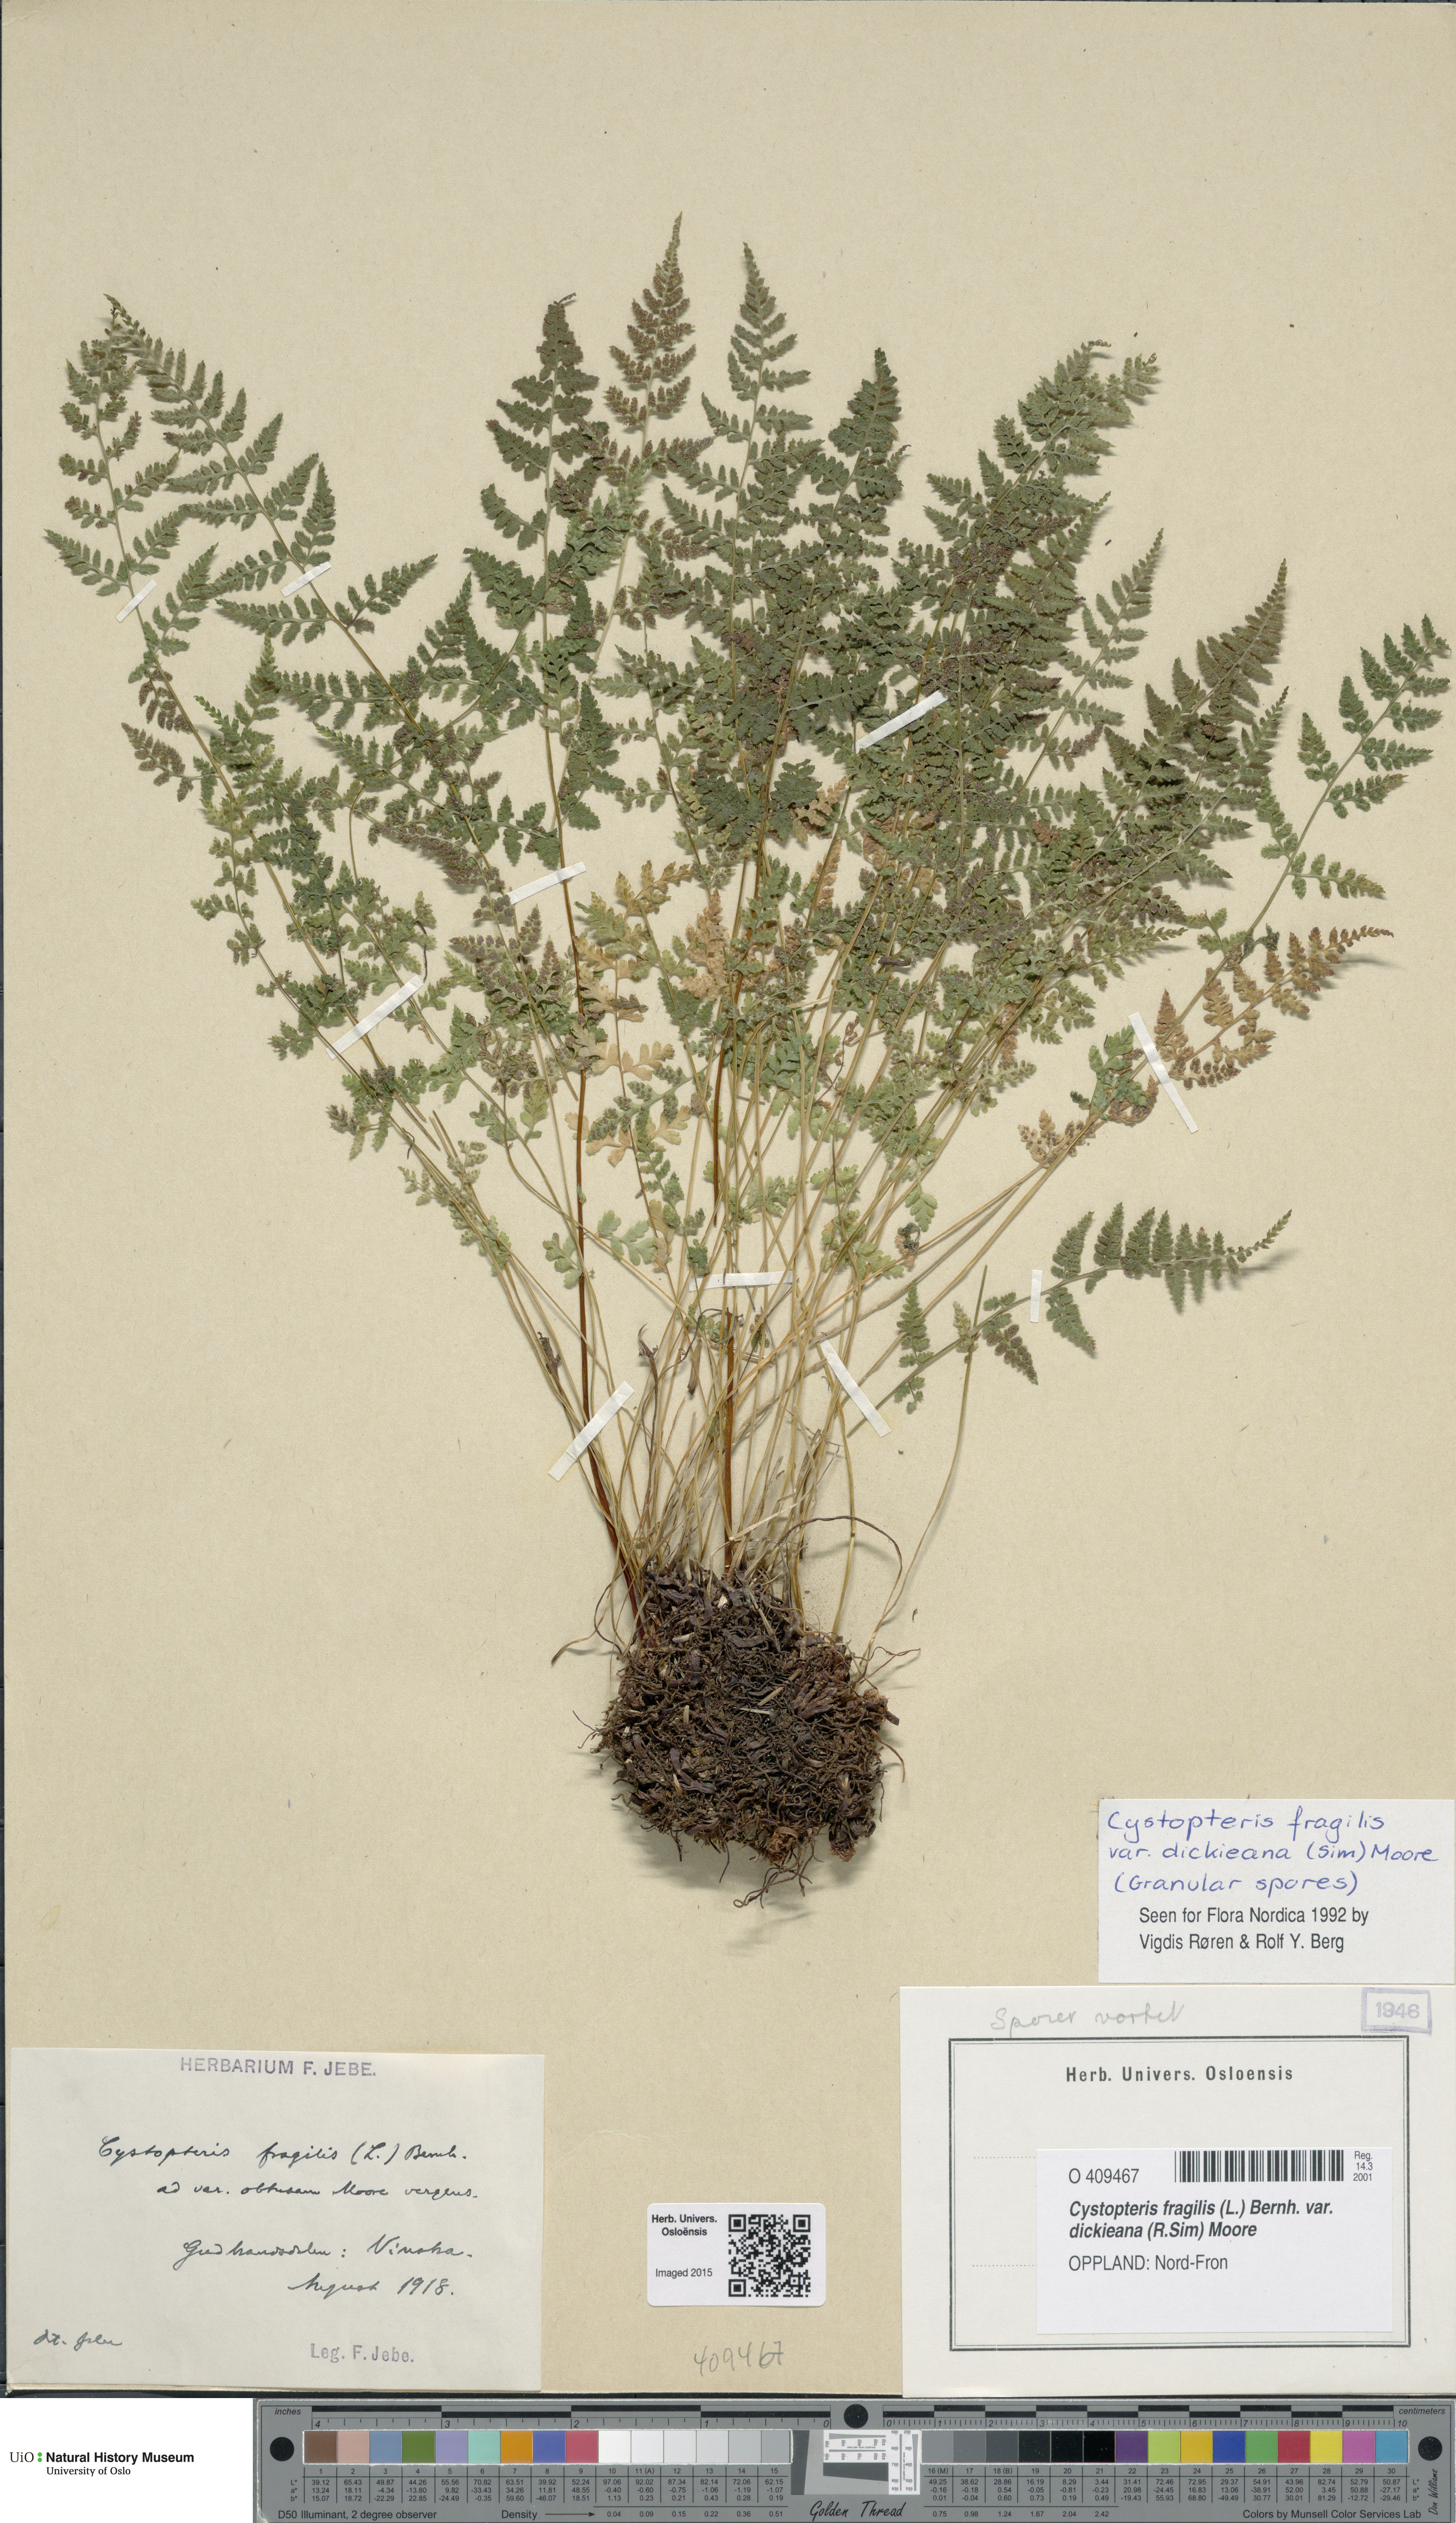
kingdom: Plantae
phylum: Tracheophyta
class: Polypodiopsida
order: Polypodiales
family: Cystopteridaceae
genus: Cystopteris
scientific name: Cystopteris dickieana
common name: Dickie's bladder-fern
